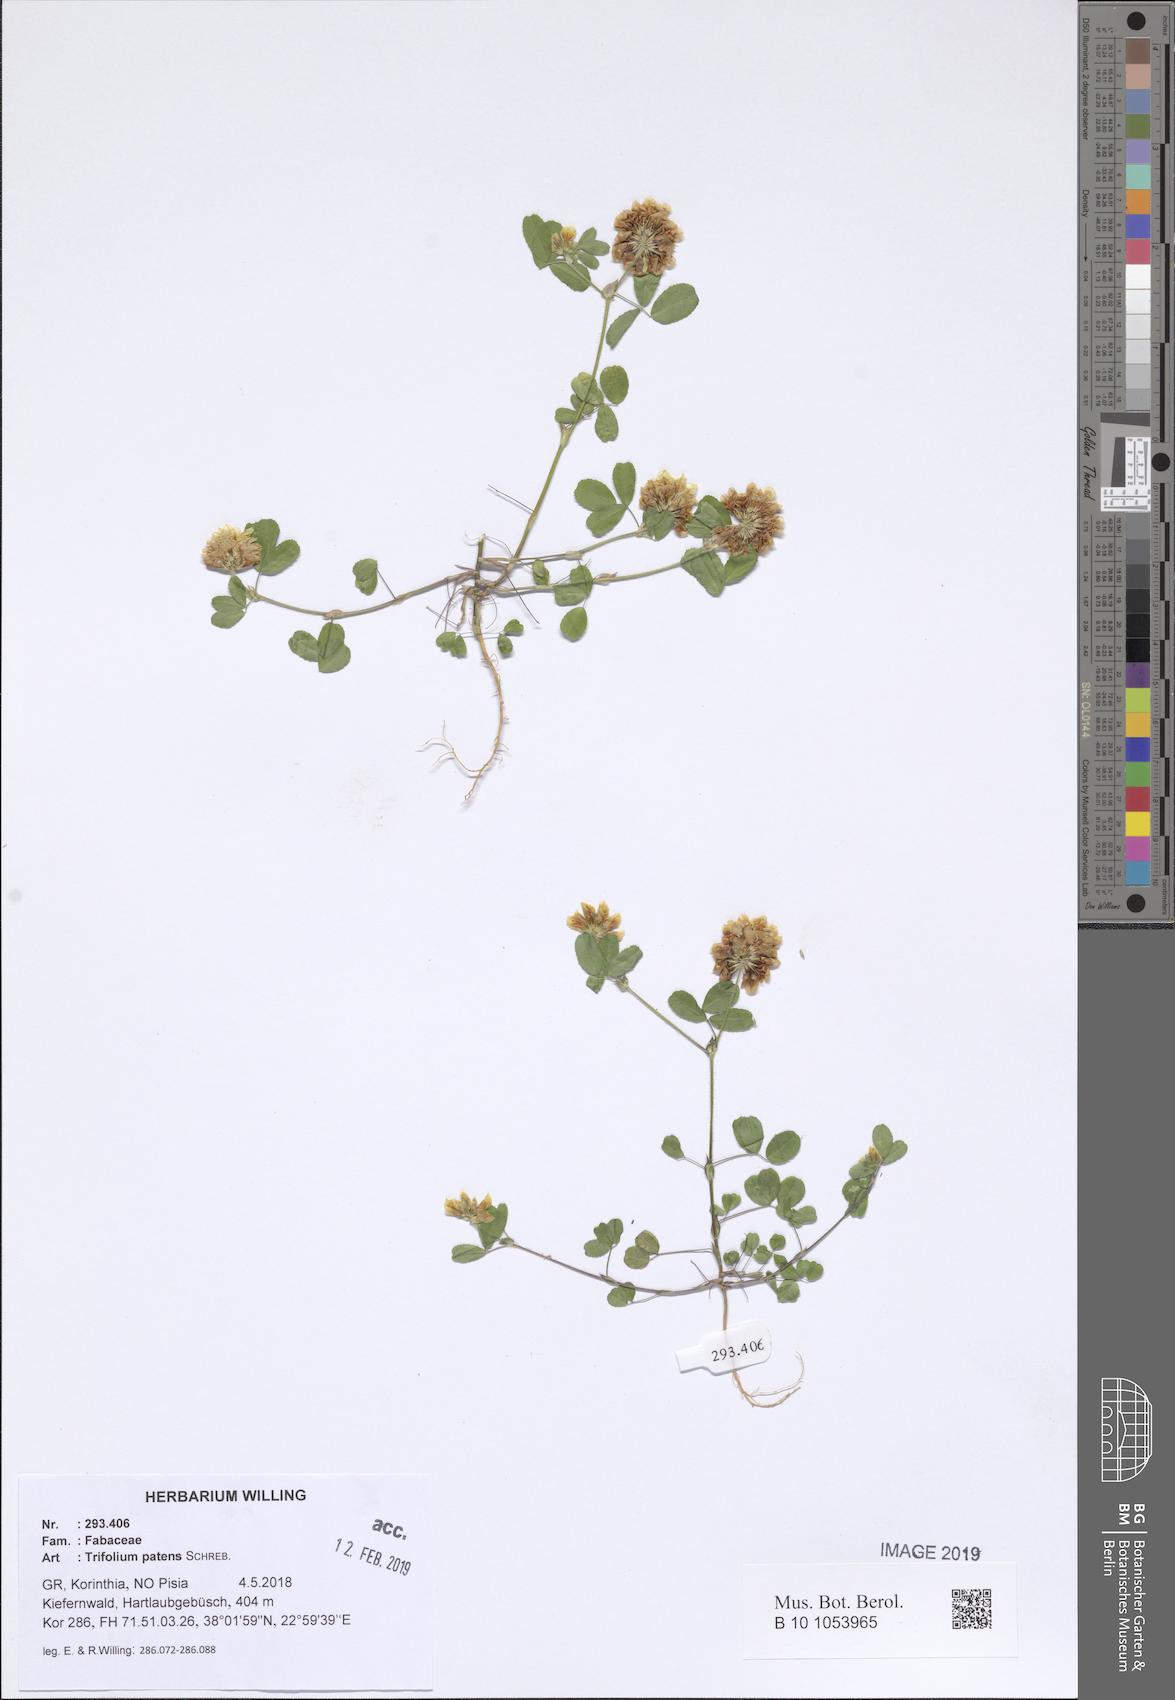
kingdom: Plantae
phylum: Tracheophyta
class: Magnoliopsida
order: Fabales
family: Fabaceae
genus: Trifolium
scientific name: Trifolium patens
